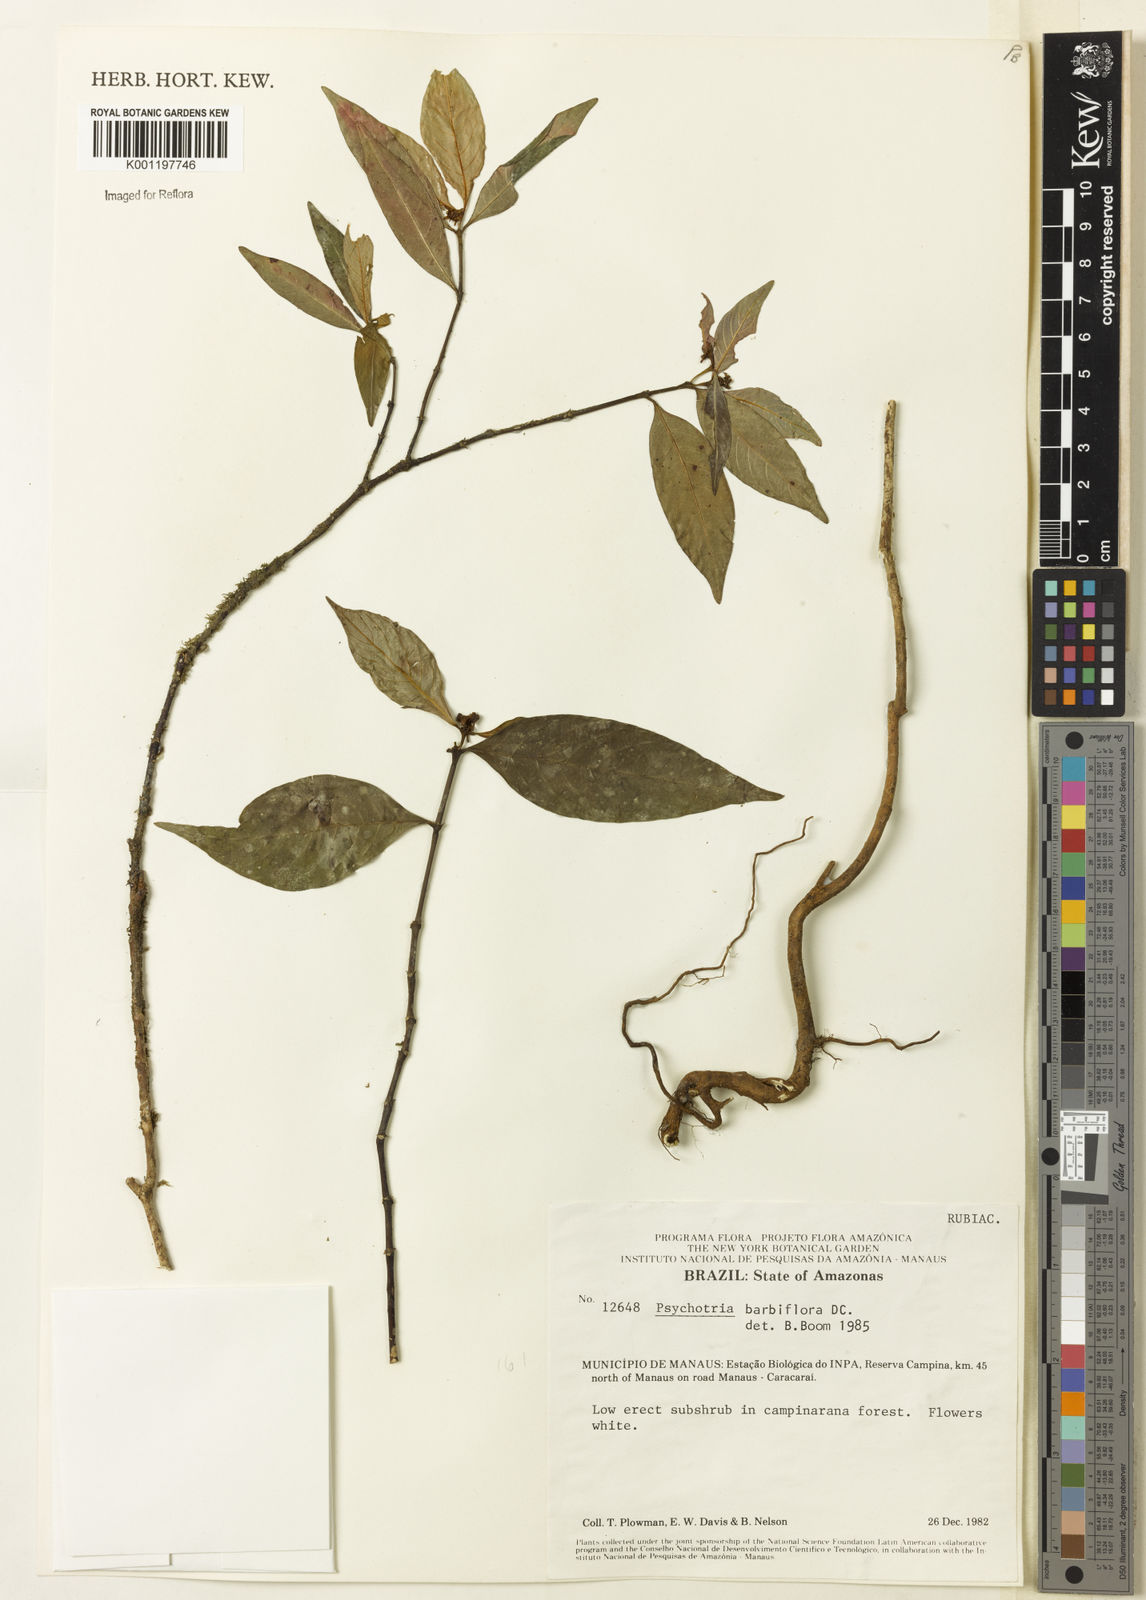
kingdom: Plantae
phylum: Tracheophyta
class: Magnoliopsida
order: Gentianales
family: Rubiaceae
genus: Palicourea
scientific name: Palicourea hoffmannseggiana
